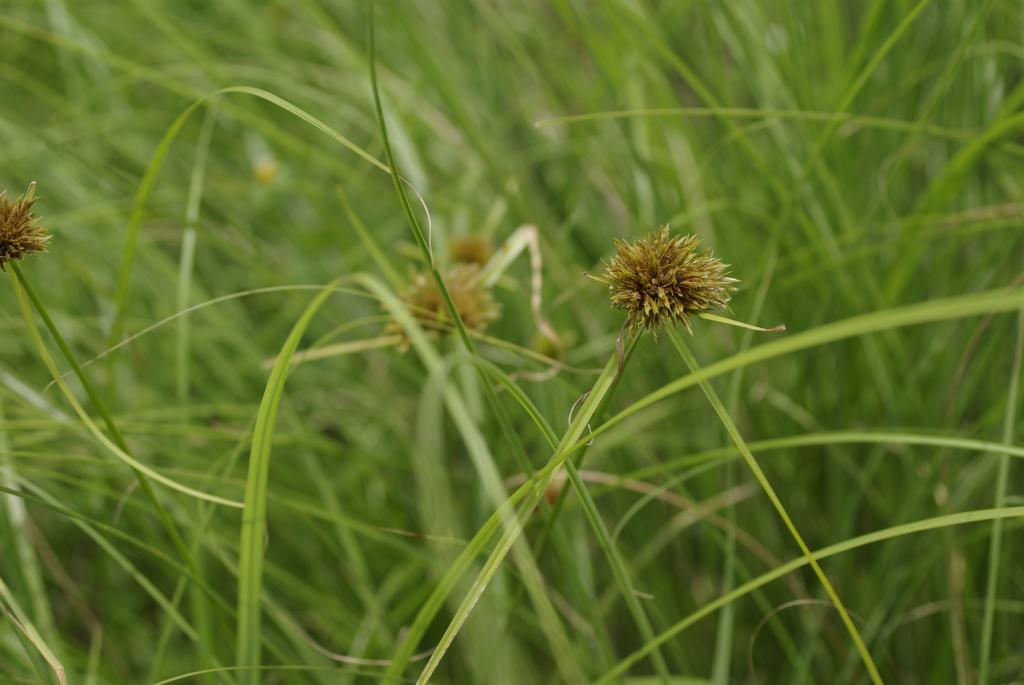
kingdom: Plantae
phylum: Tracheophyta
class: Liliopsida
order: Poales
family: Cyperaceae
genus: Cyperus
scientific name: Cyperus polystachyos
